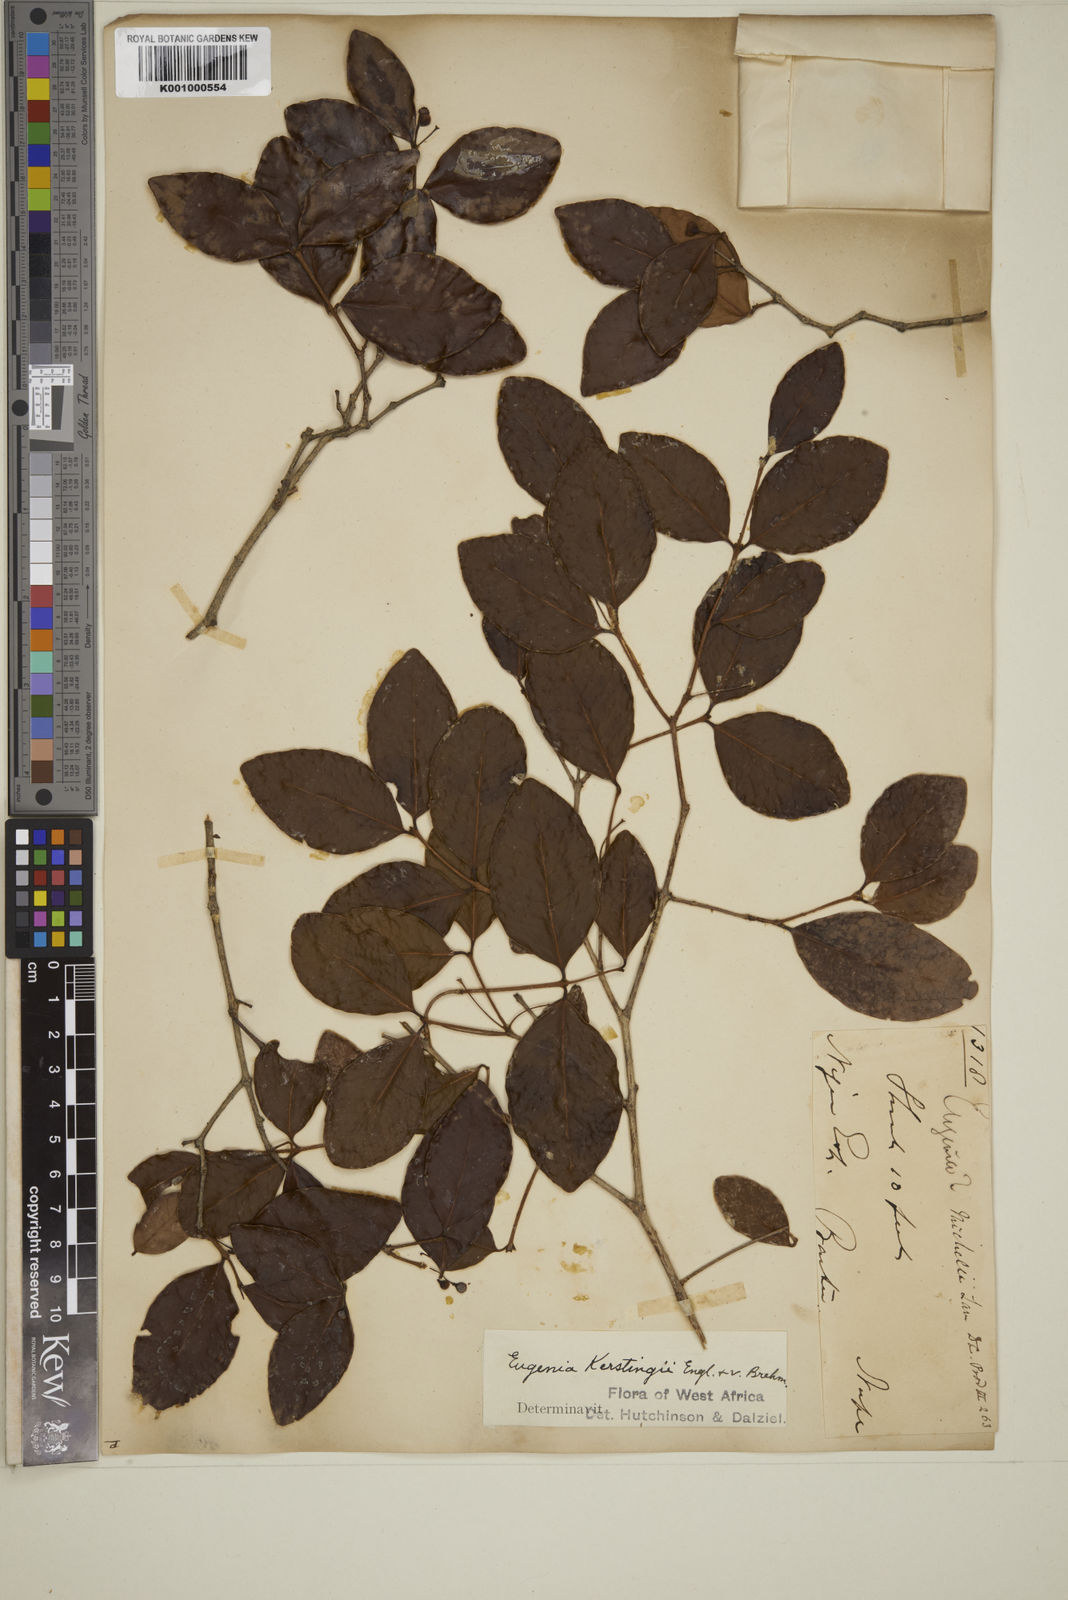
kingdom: Plantae
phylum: Tracheophyta
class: Magnoliopsida
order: Myrtales
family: Myrtaceae
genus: Eugenia
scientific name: Eugenia kerstingii
